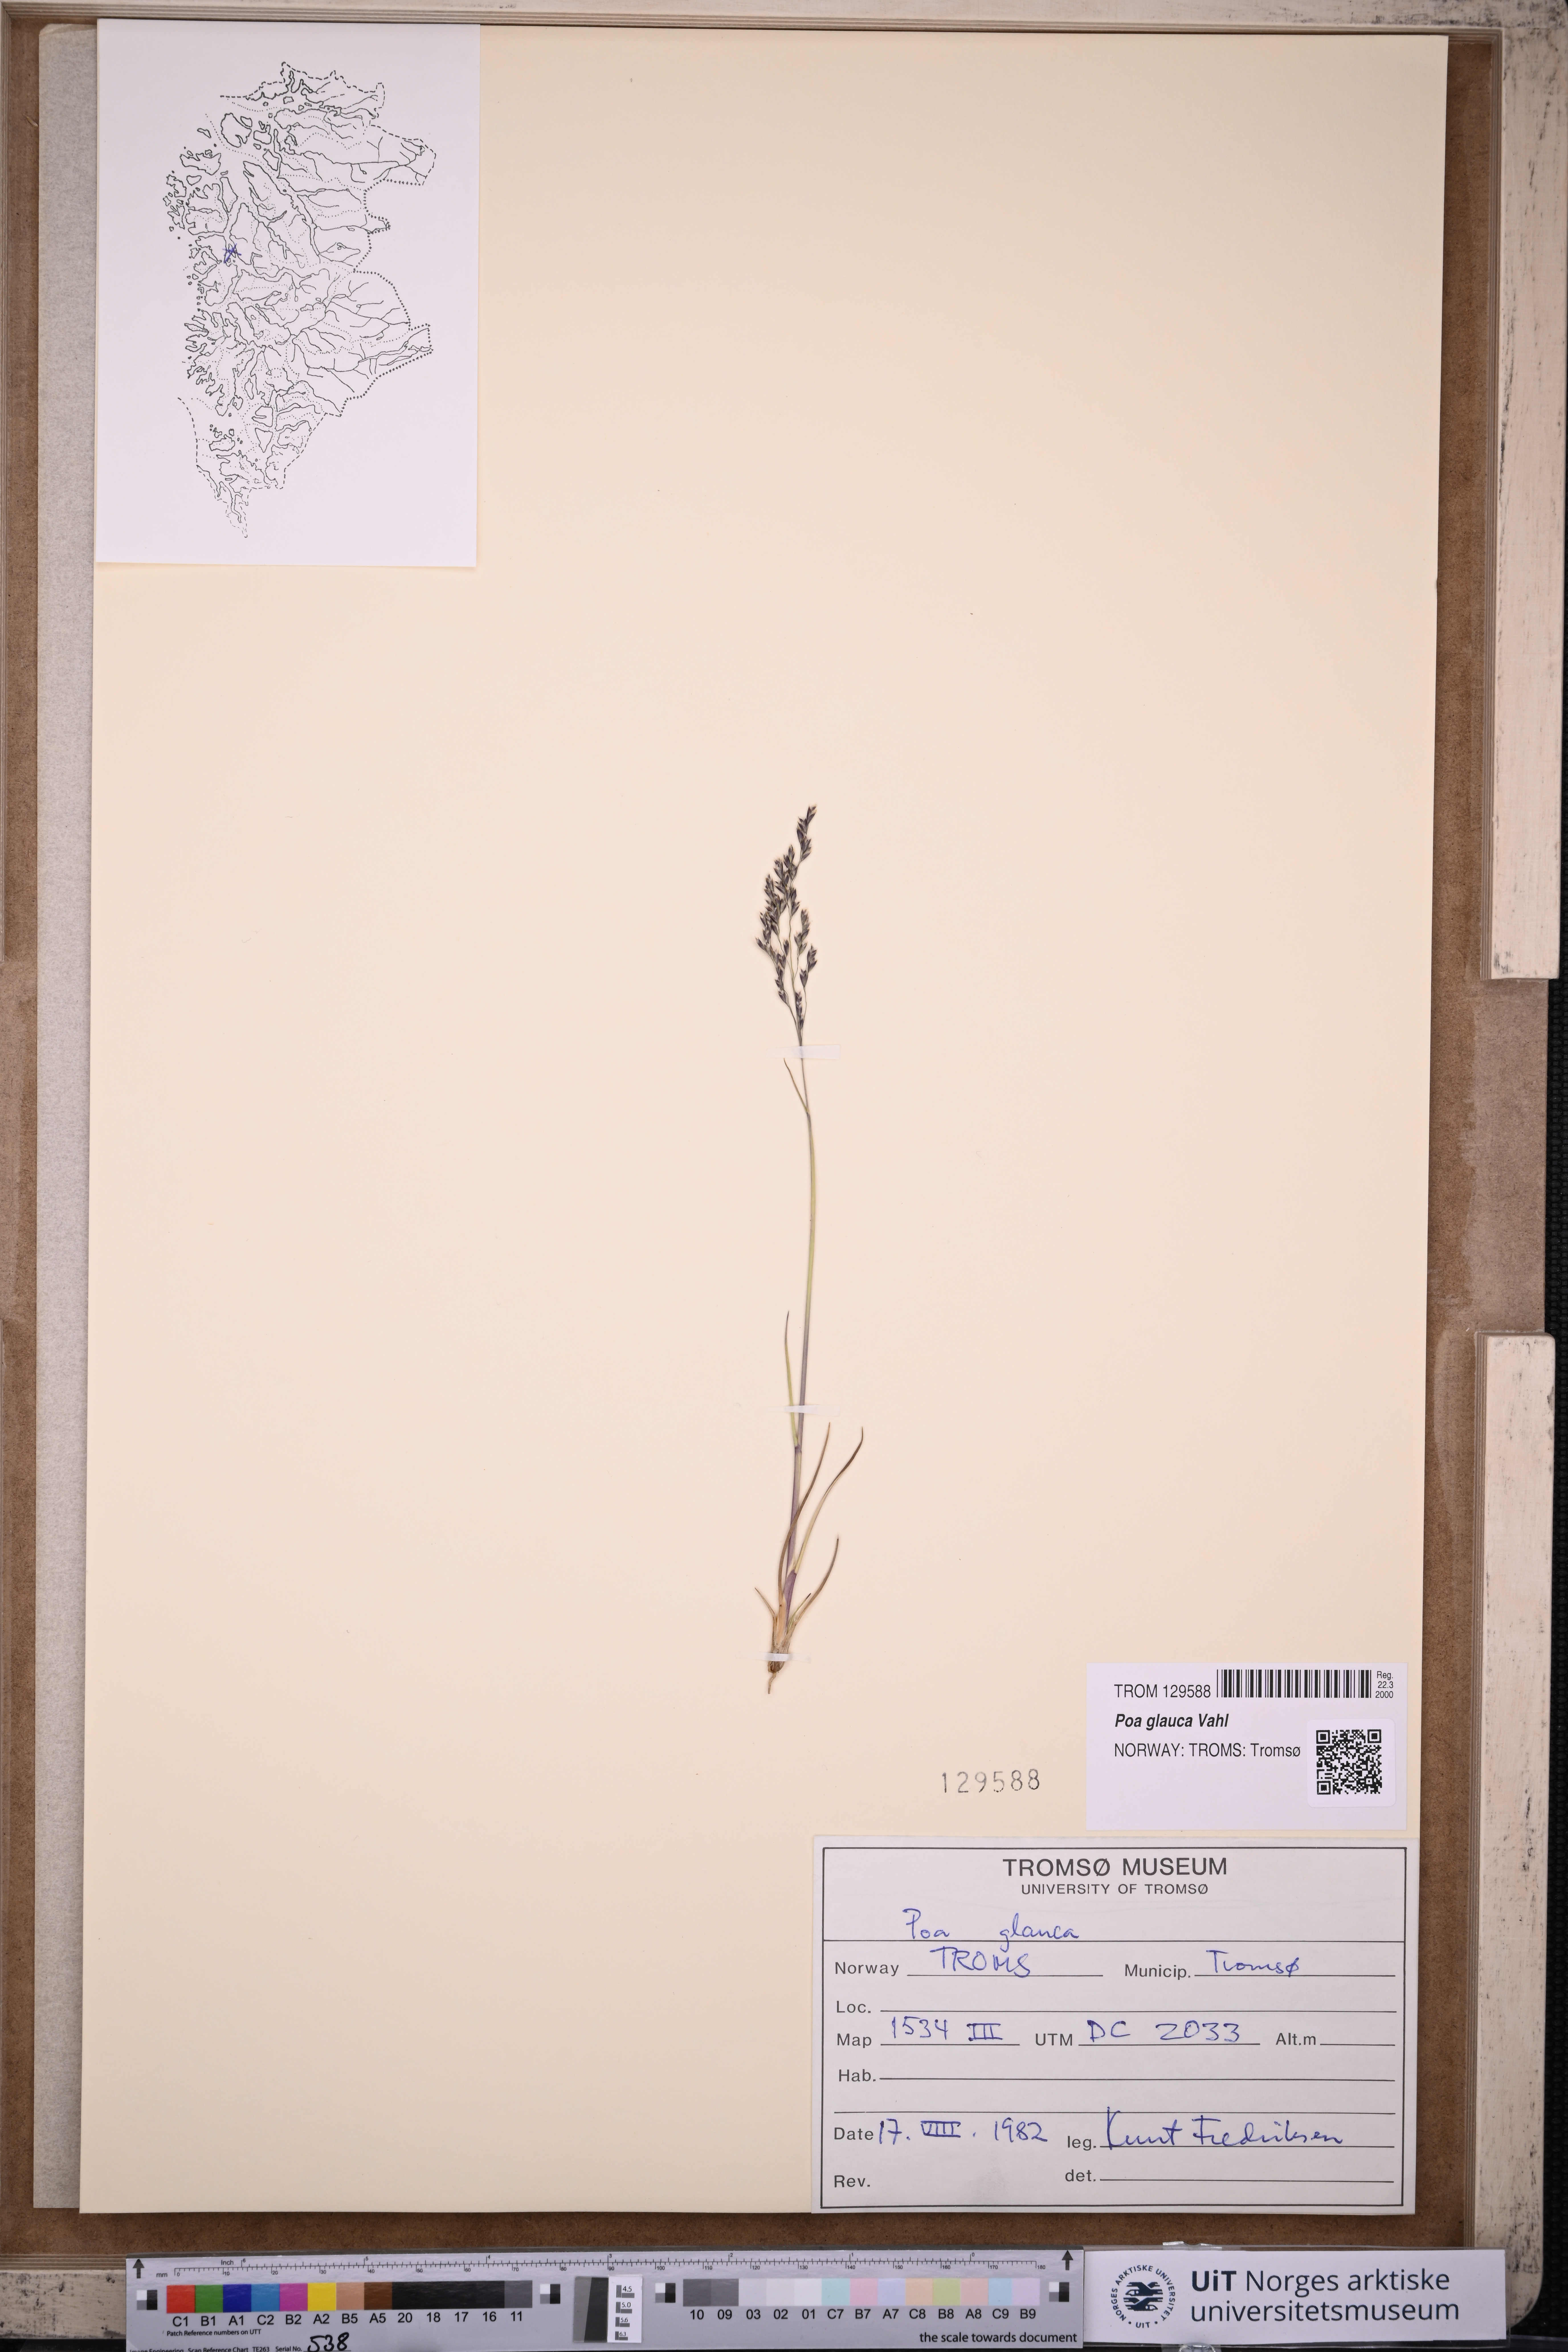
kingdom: Plantae
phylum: Tracheophyta
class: Liliopsida
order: Poales
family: Poaceae
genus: Poa
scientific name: Poa glauca
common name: Glaucous bluegrass
